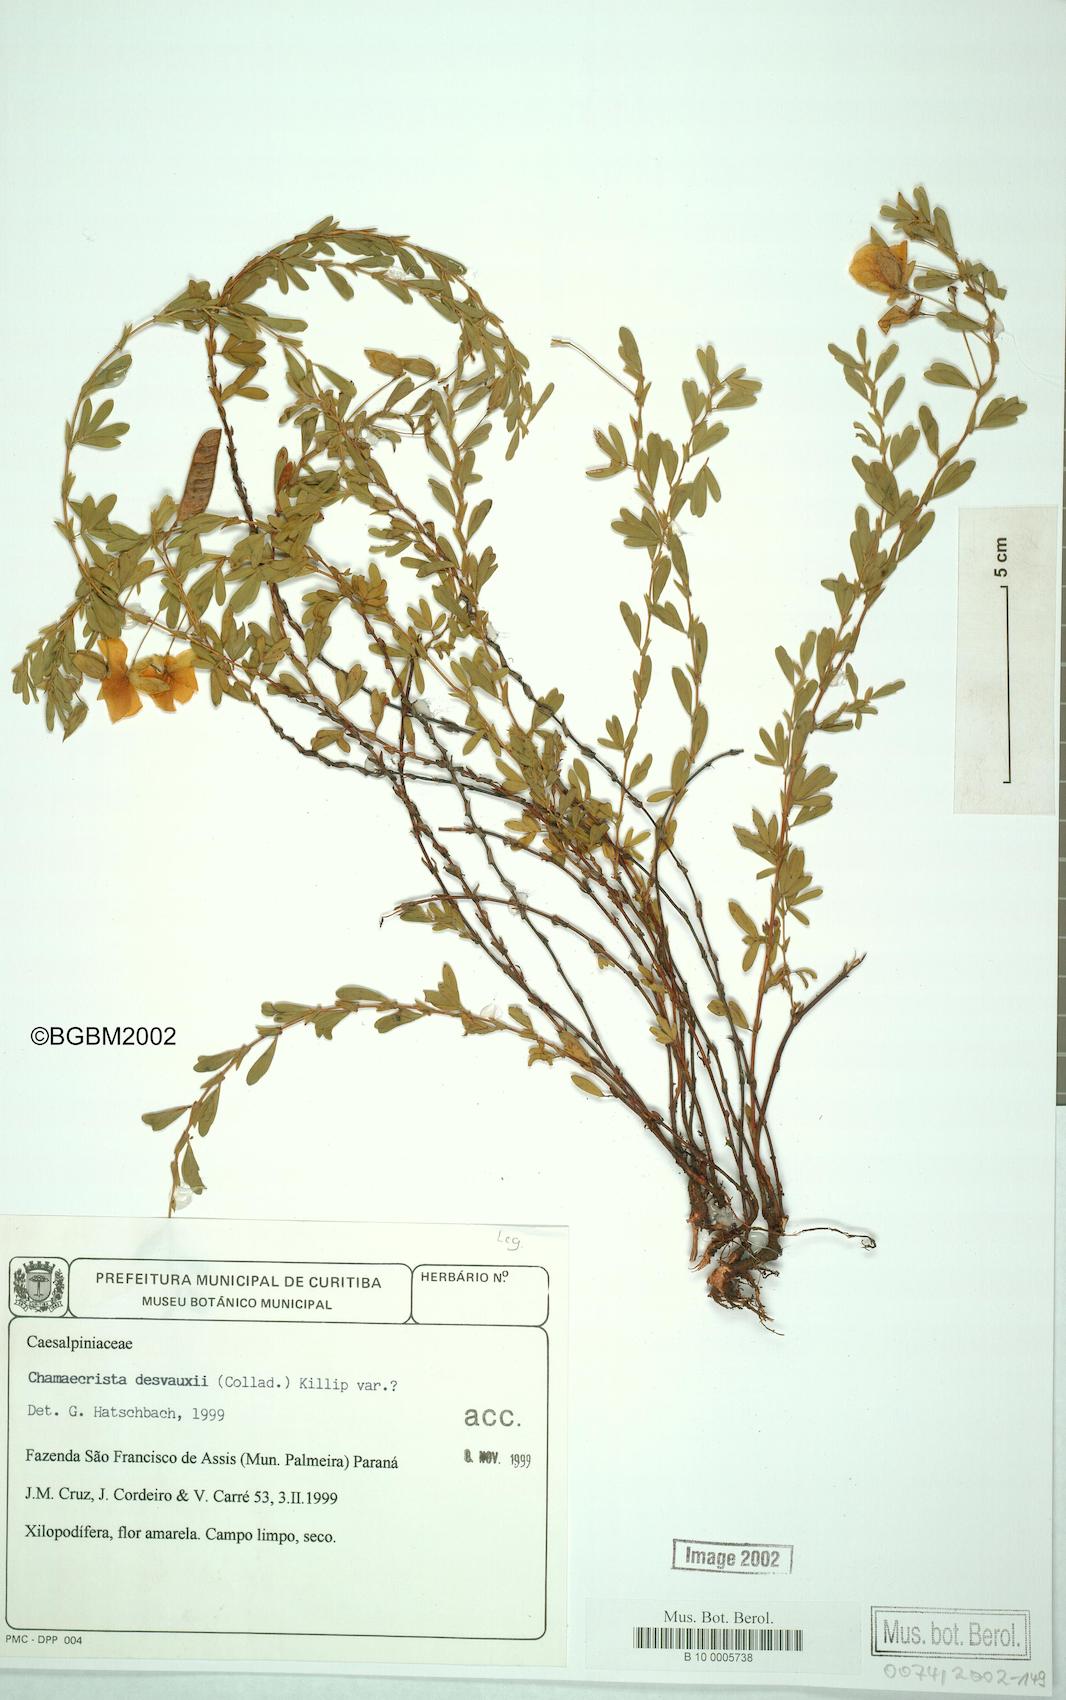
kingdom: Plantae
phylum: Tracheophyta
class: Magnoliopsida
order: Fabales
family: Fabaceae
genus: Chamaecrista
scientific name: Chamaecrista desvauxii
